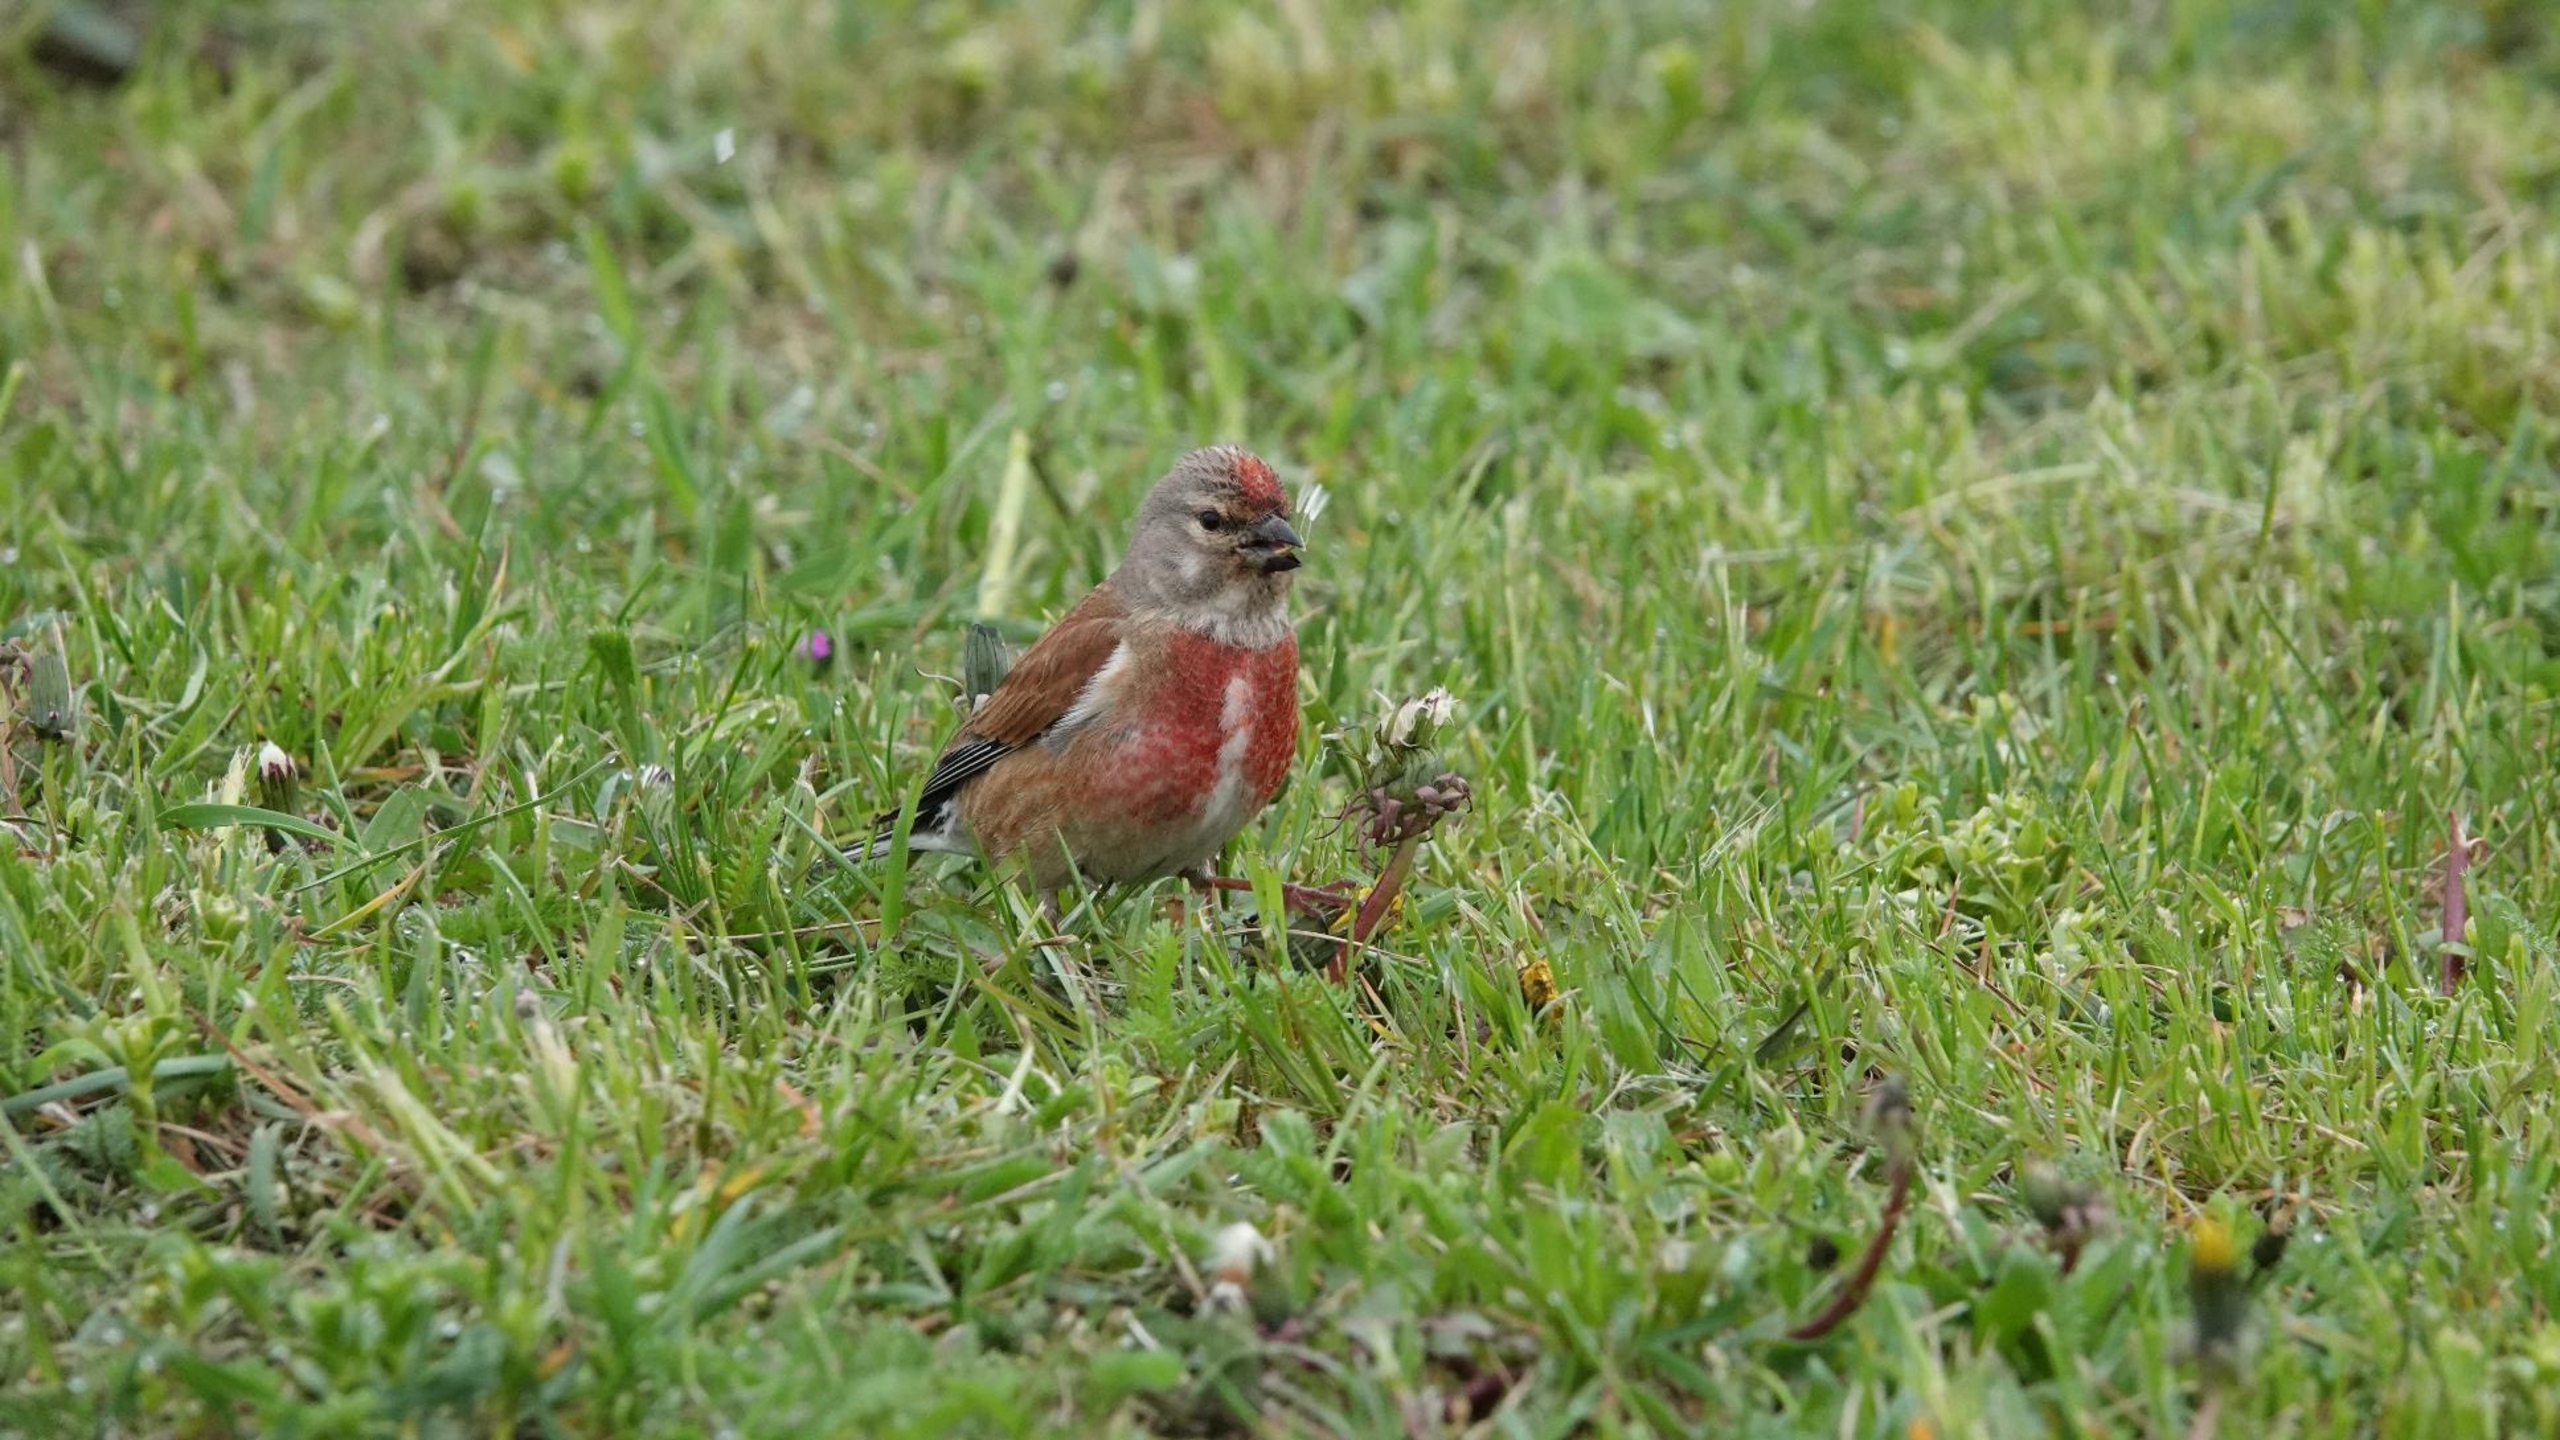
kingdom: Animalia
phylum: Chordata
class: Aves
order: Passeriformes
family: Fringillidae
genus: Linaria
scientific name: Linaria cannabina
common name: Tornirisk
